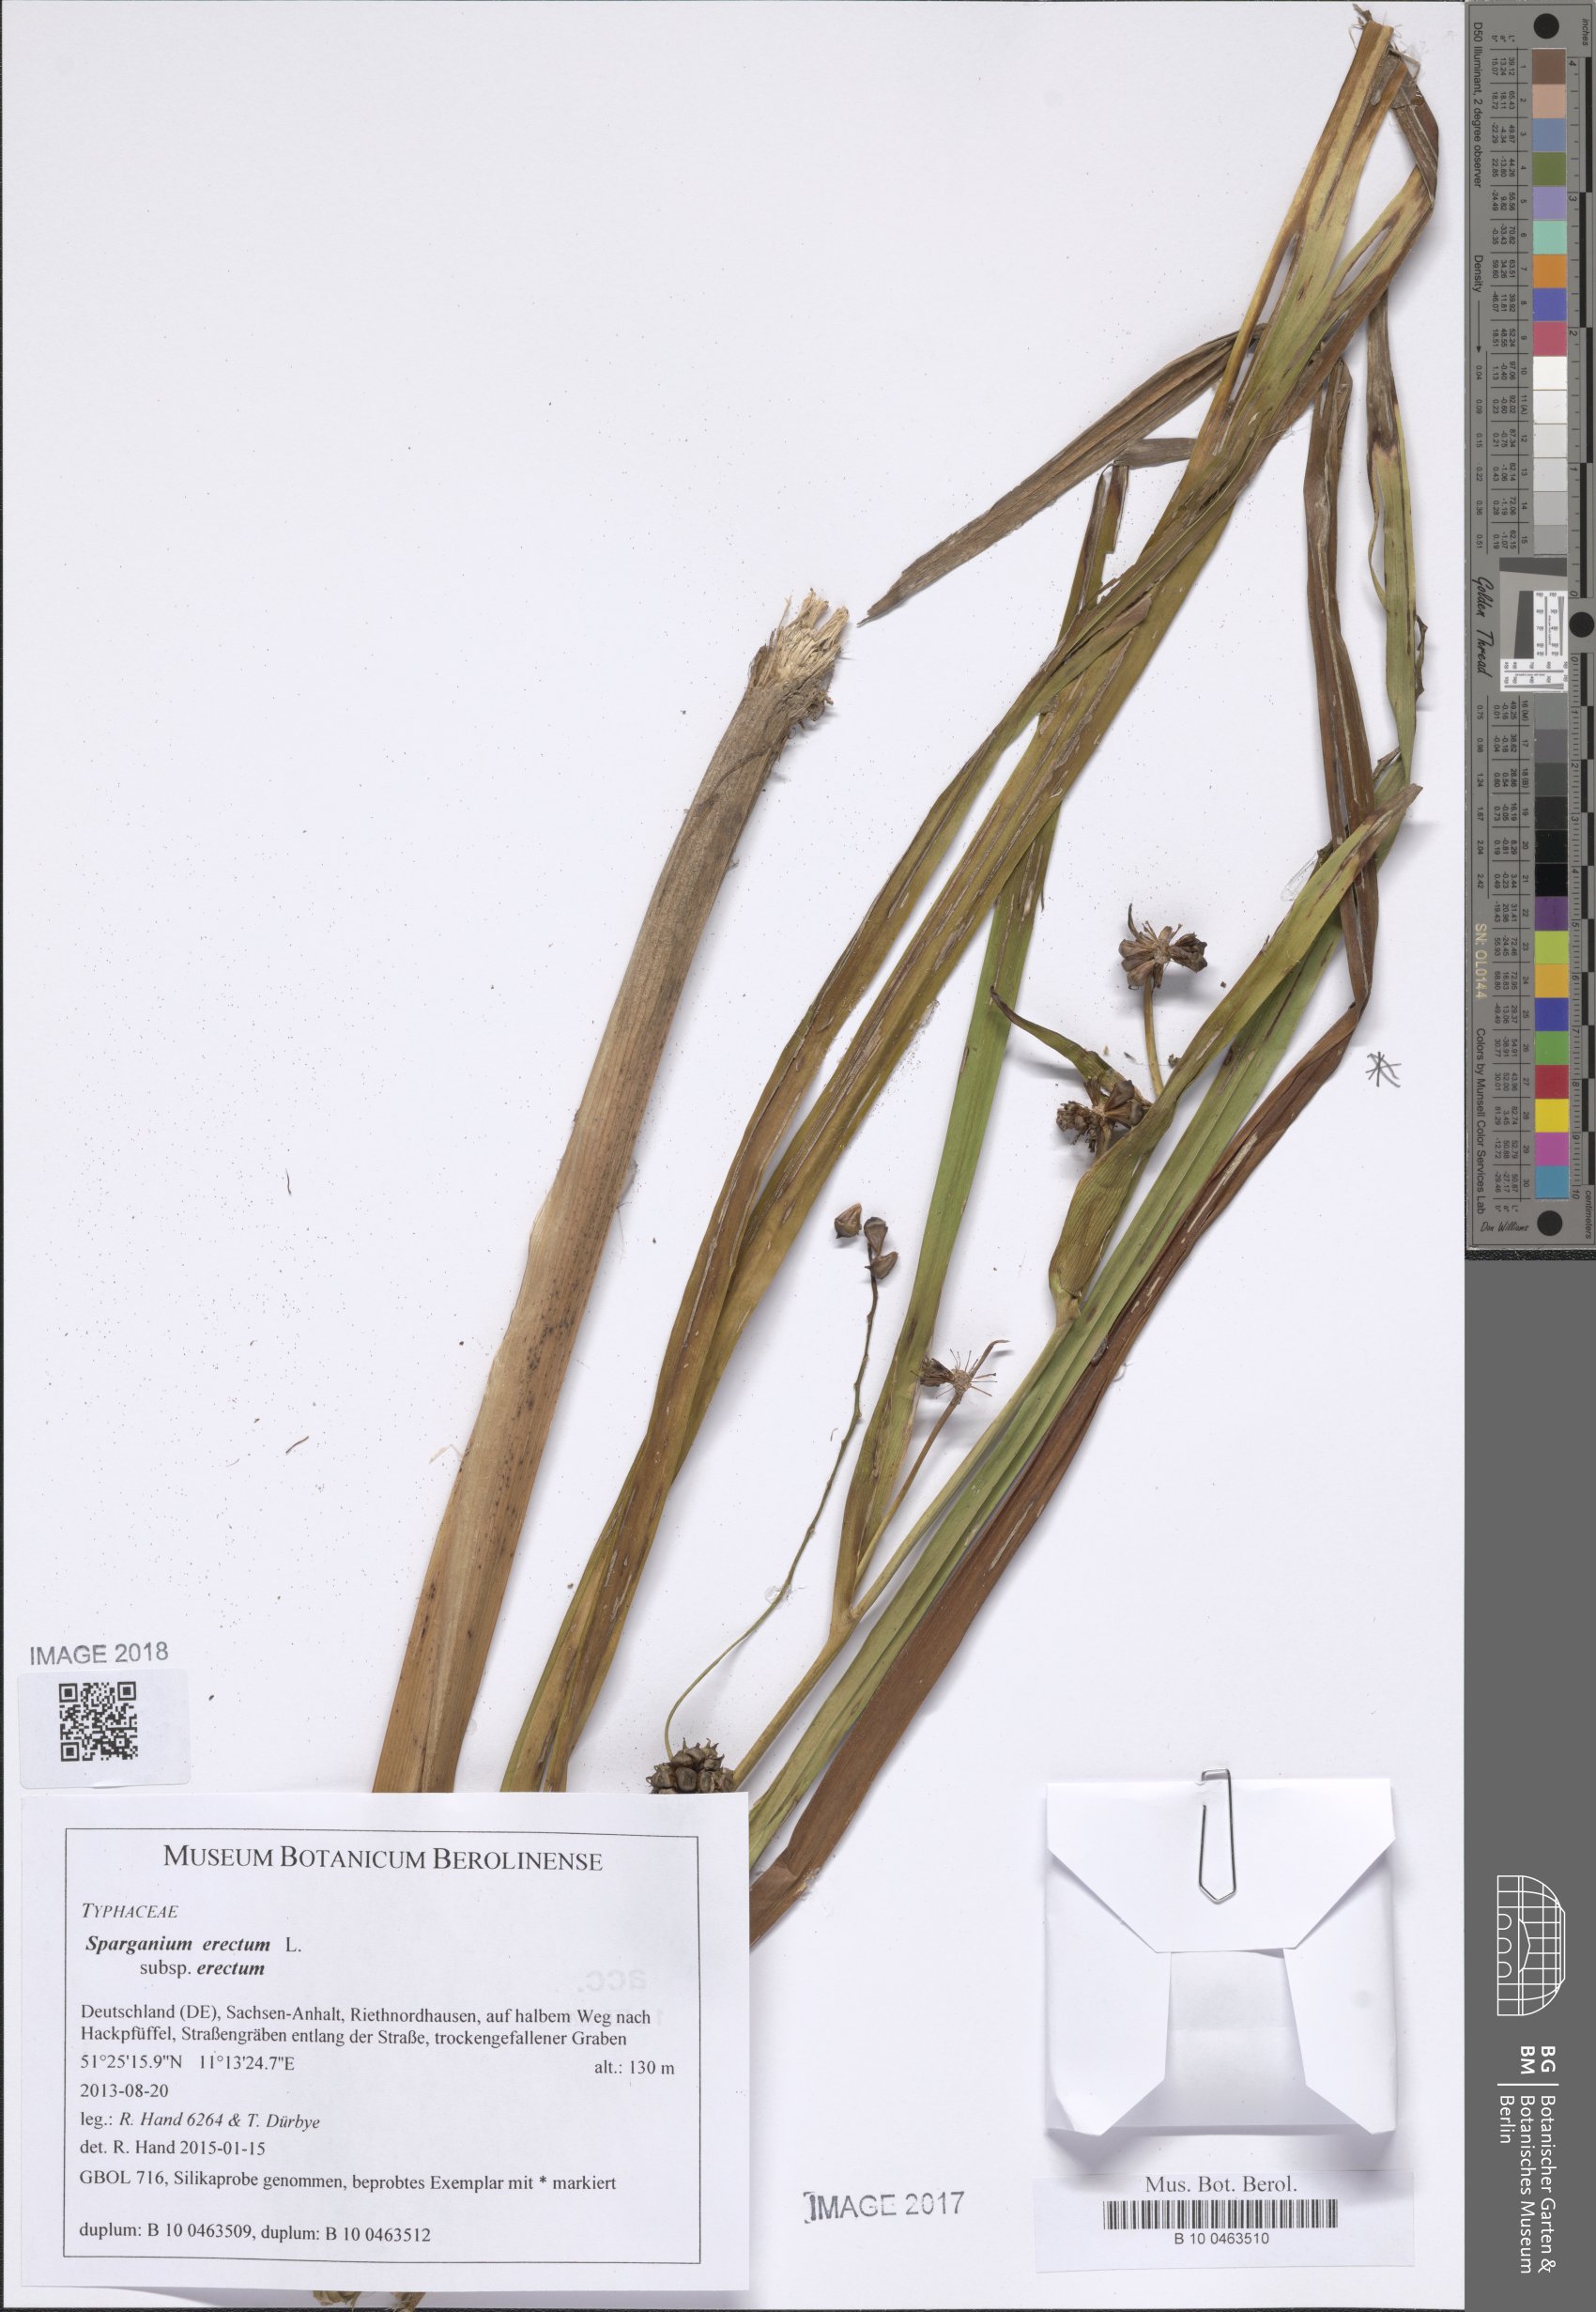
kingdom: Plantae
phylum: Tracheophyta
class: Liliopsida
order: Poales
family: Typhaceae
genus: Sparganium
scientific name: Sparganium erectum
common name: Branched bur-reed
